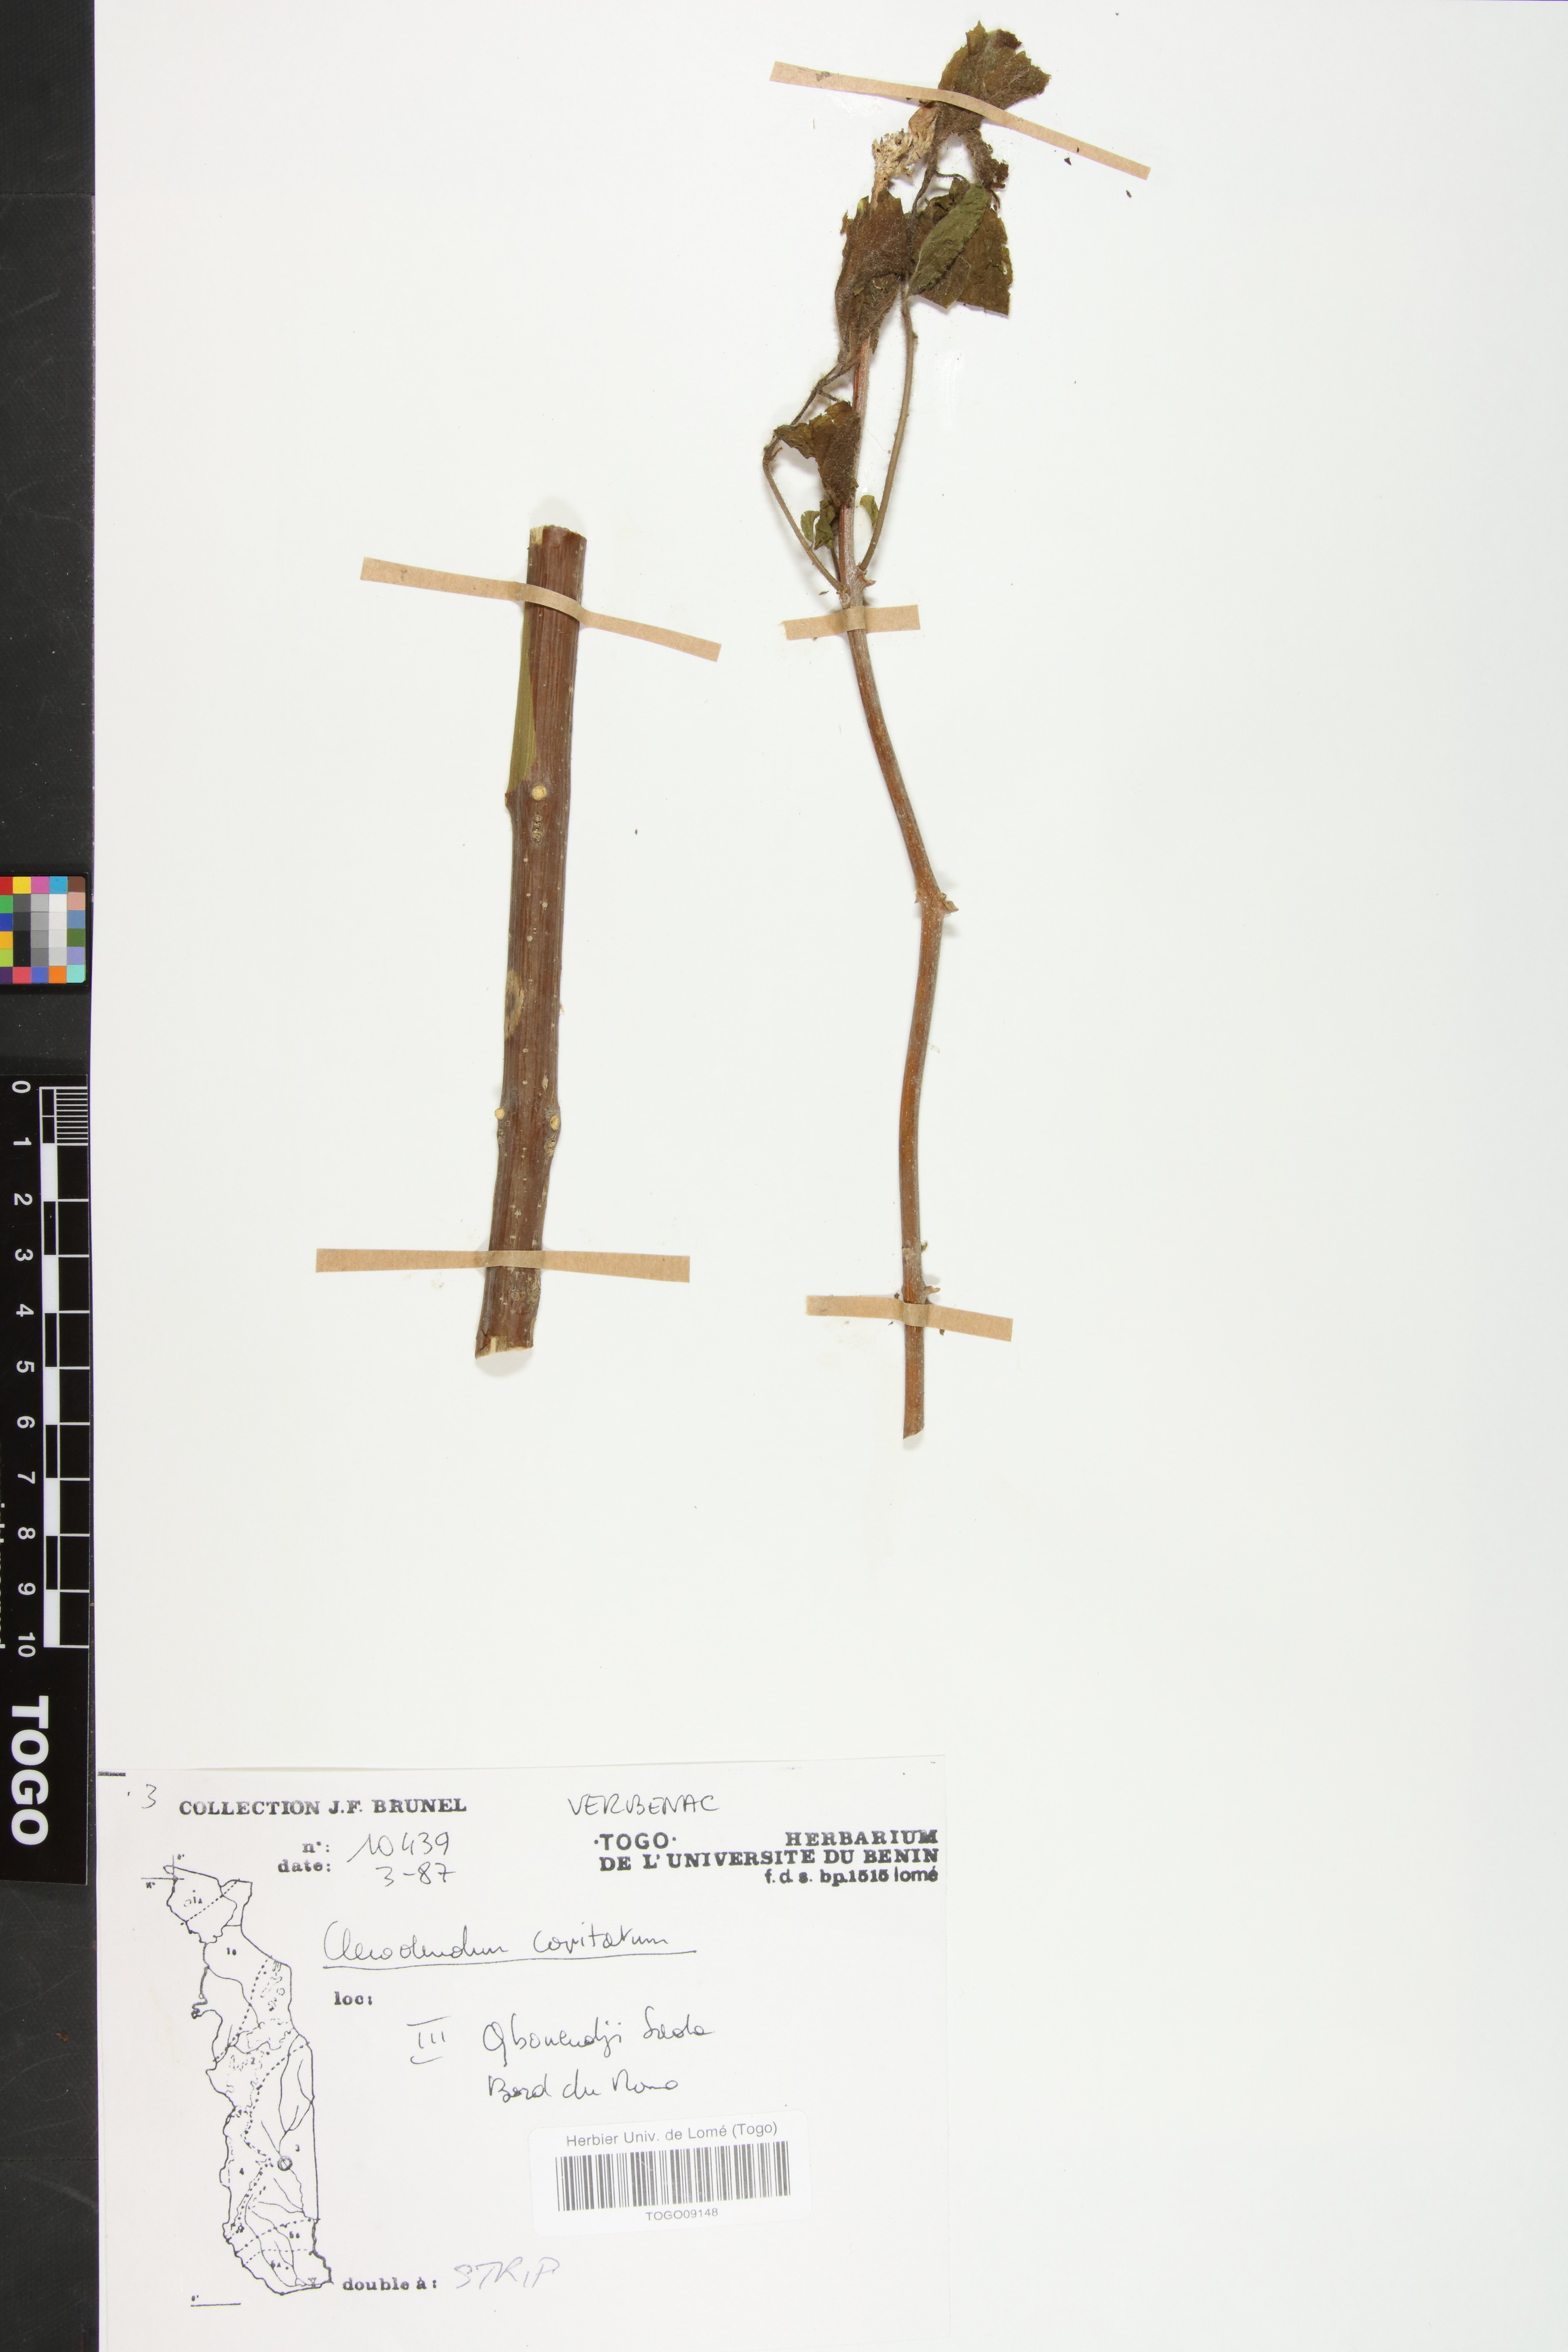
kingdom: Plantae
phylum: Tracheophyta
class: Magnoliopsida
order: Lamiales
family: Lamiaceae
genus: Clerodendrum
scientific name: Clerodendrum capitatum
